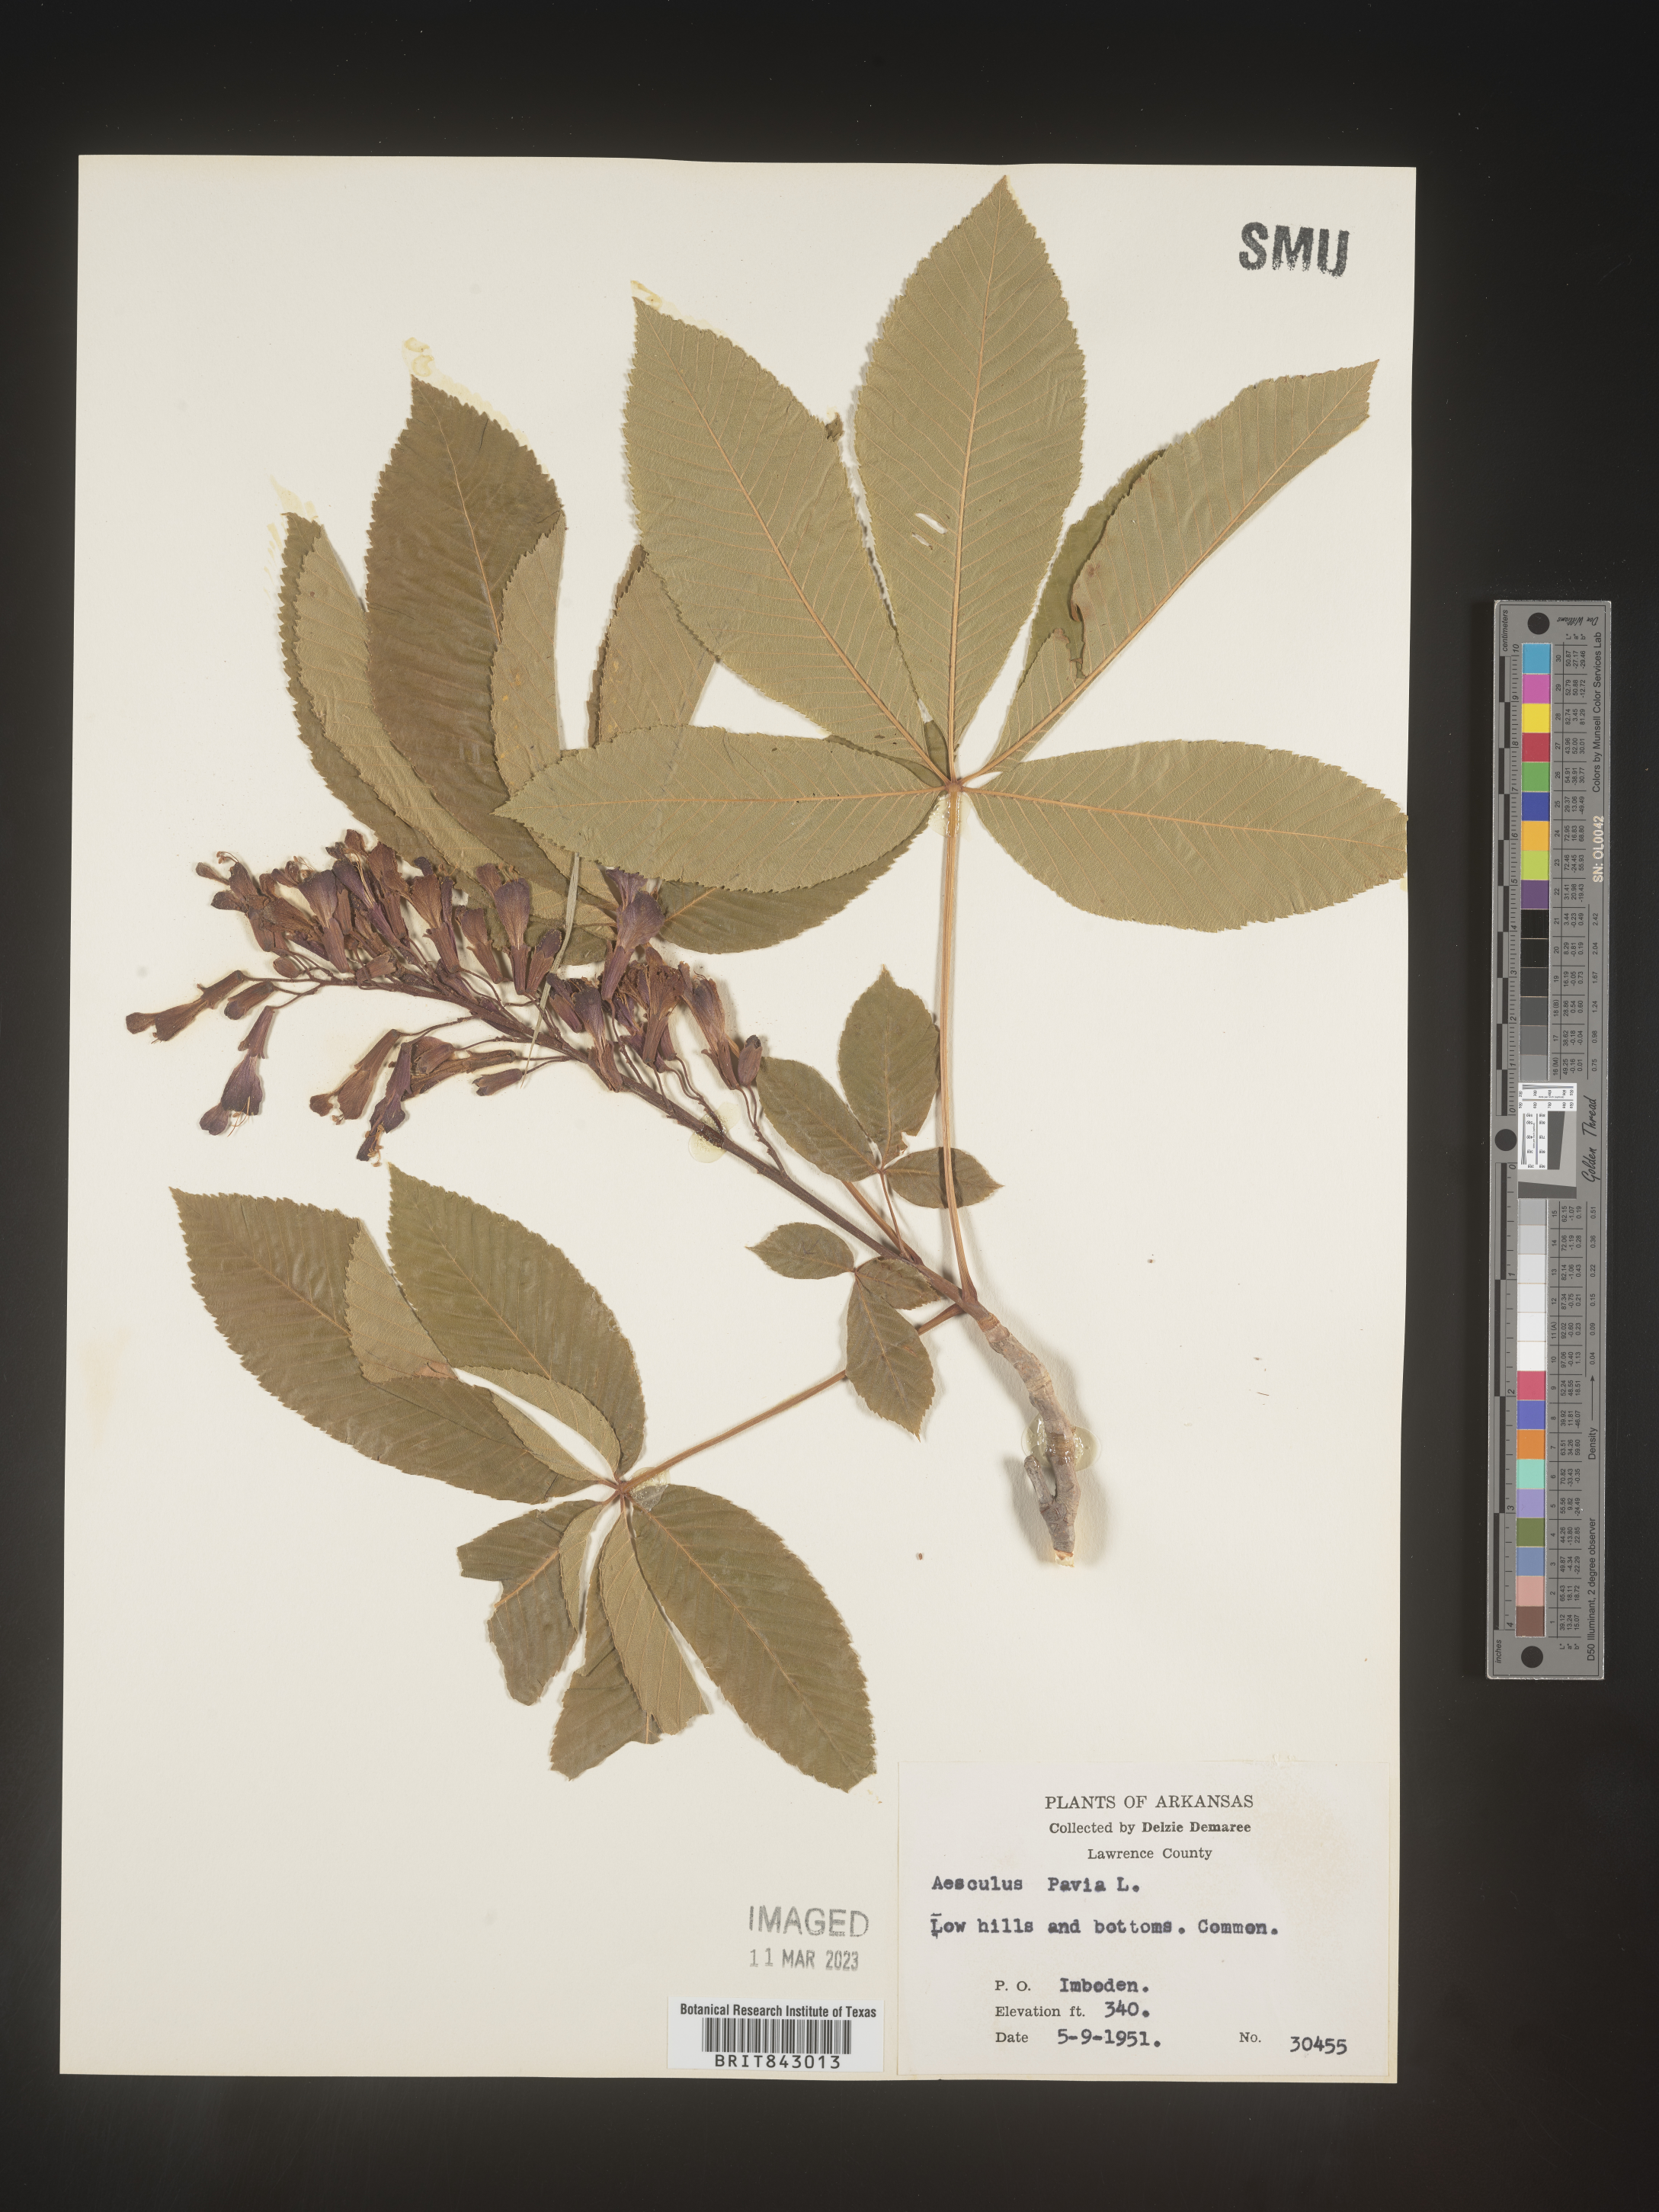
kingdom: Plantae
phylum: Tracheophyta
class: Magnoliopsida
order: Sapindales
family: Sapindaceae
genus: Aesculus
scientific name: Aesculus pavia
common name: Red buckeye
